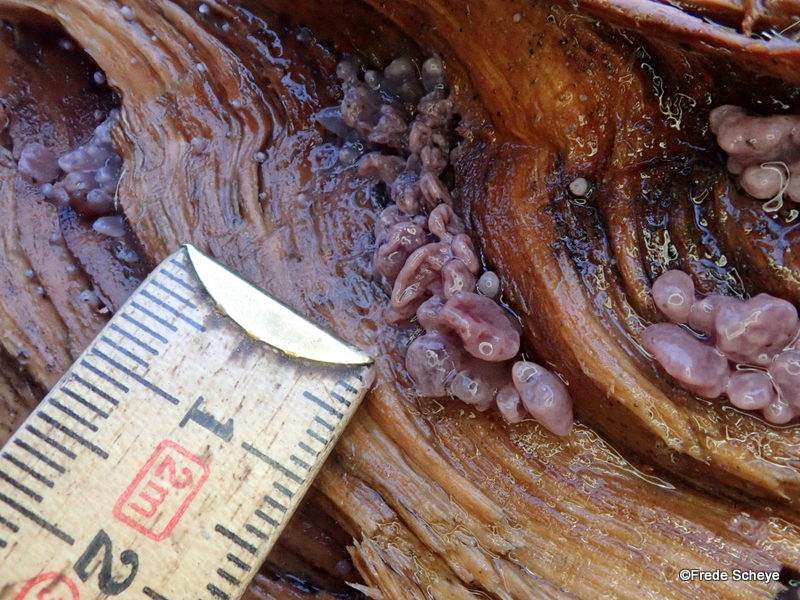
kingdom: Fungi
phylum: Ascomycota
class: Leotiomycetes
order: Helotiales
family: Gelatinodiscaceae
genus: Ascocoryne
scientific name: Ascocoryne sarcoides
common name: rødlilla sejskive
